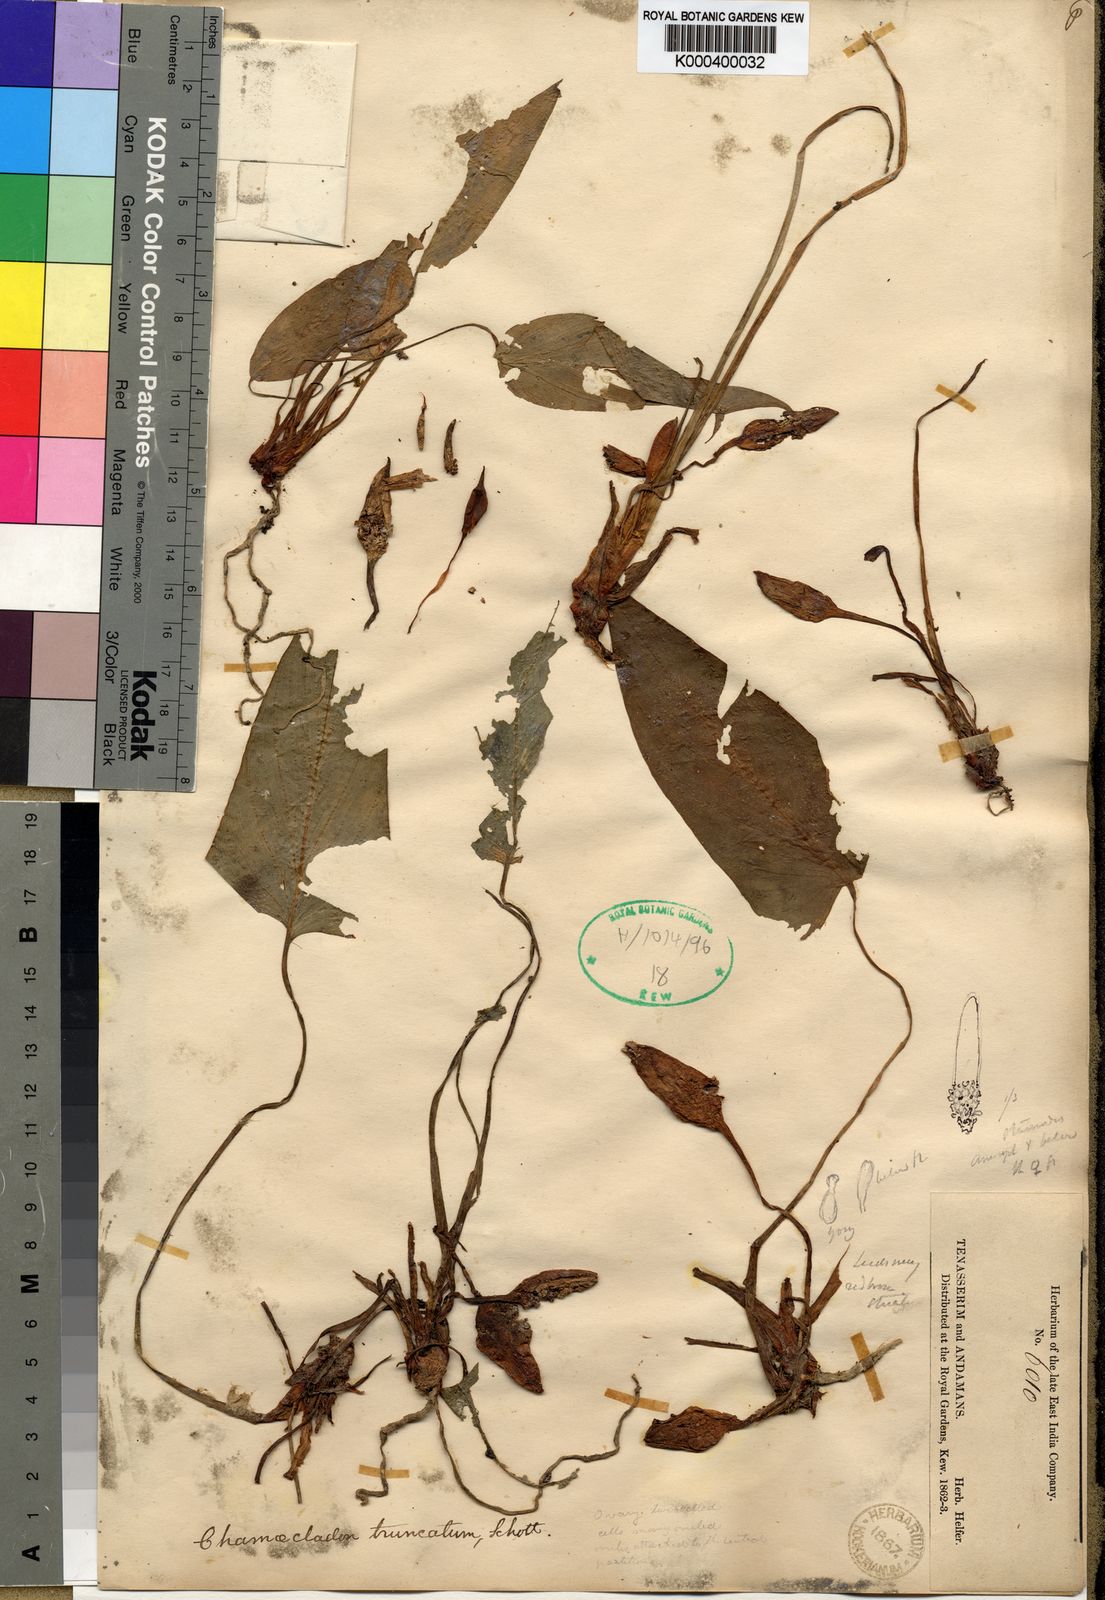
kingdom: Plantae
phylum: Tracheophyta
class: Liliopsida
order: Alismatales
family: Araceae
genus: Homalomena
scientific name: Homalomena truncata
